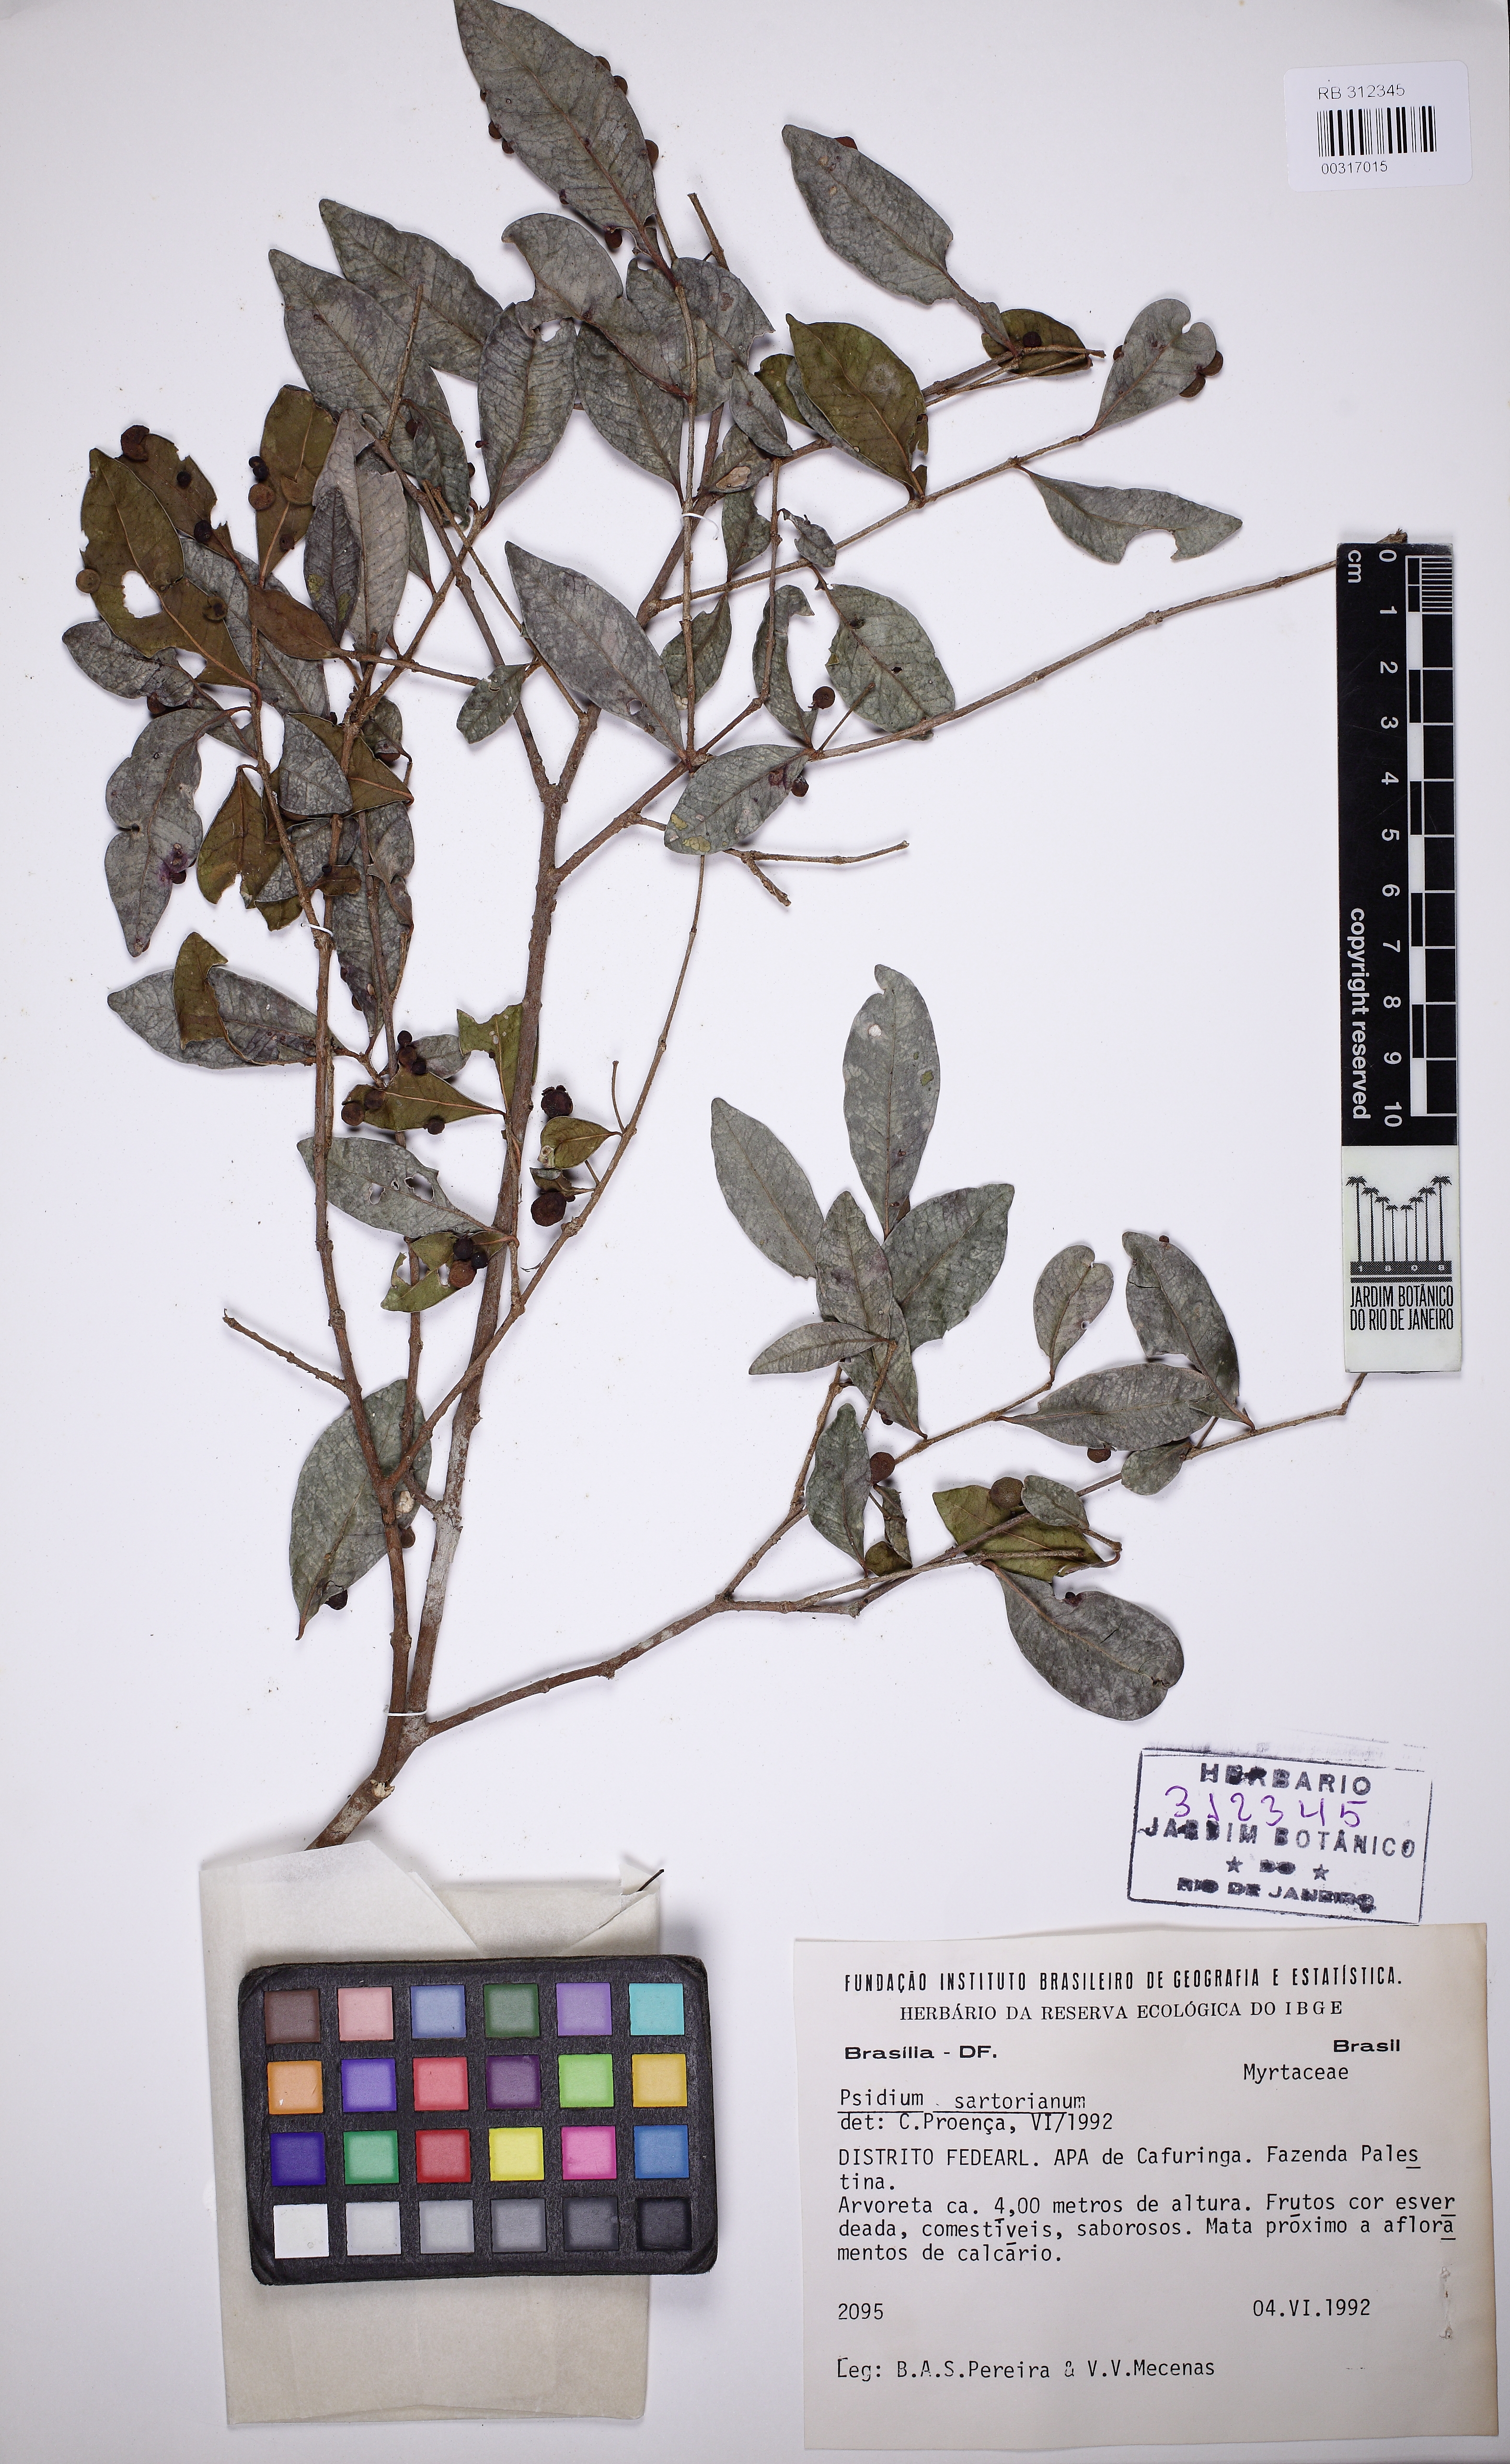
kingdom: Plantae
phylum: Tracheophyta
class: Magnoliopsida
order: Myrtales
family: Myrtaceae
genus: Psidium
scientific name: Psidium sartorianum
